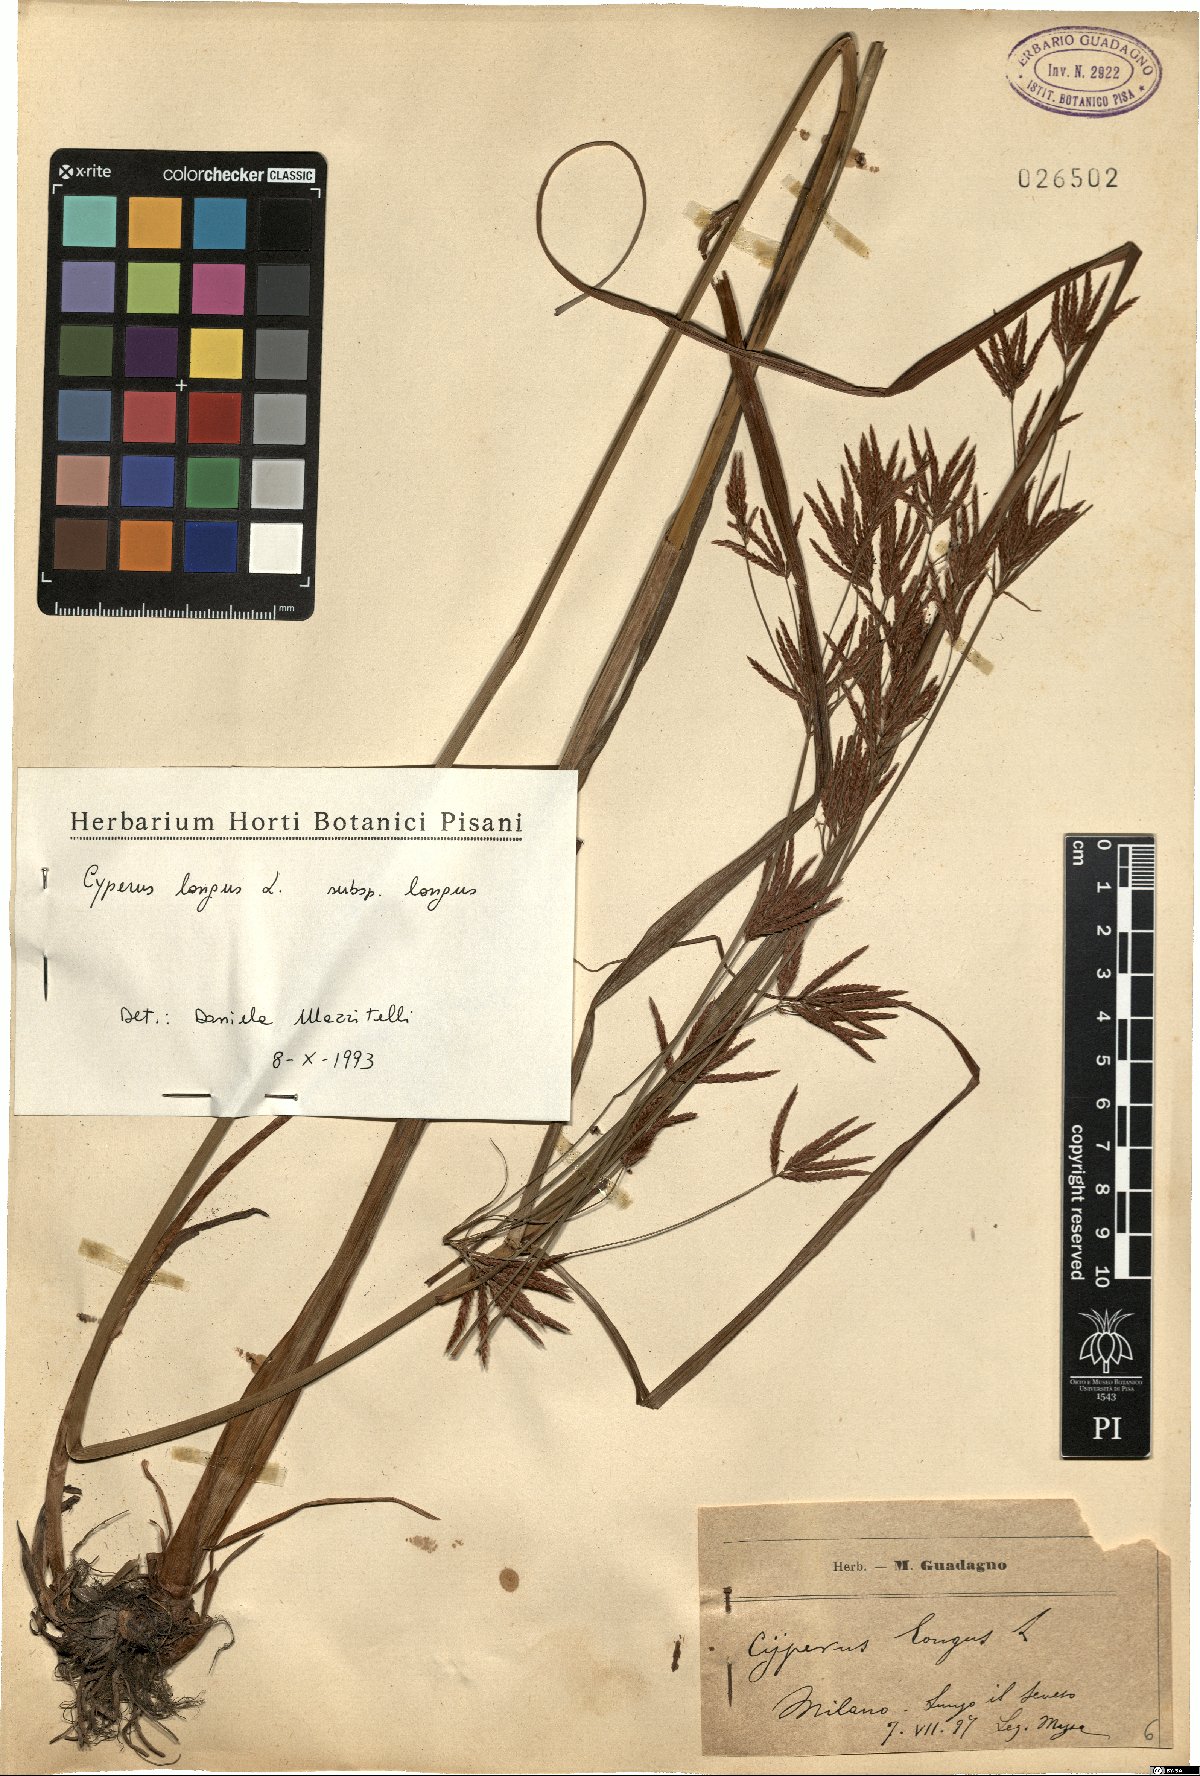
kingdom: Plantae
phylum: Tracheophyta
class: Liliopsida
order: Poales
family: Cyperaceae
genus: Cyperus
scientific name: Cyperus longus
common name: Galingale
